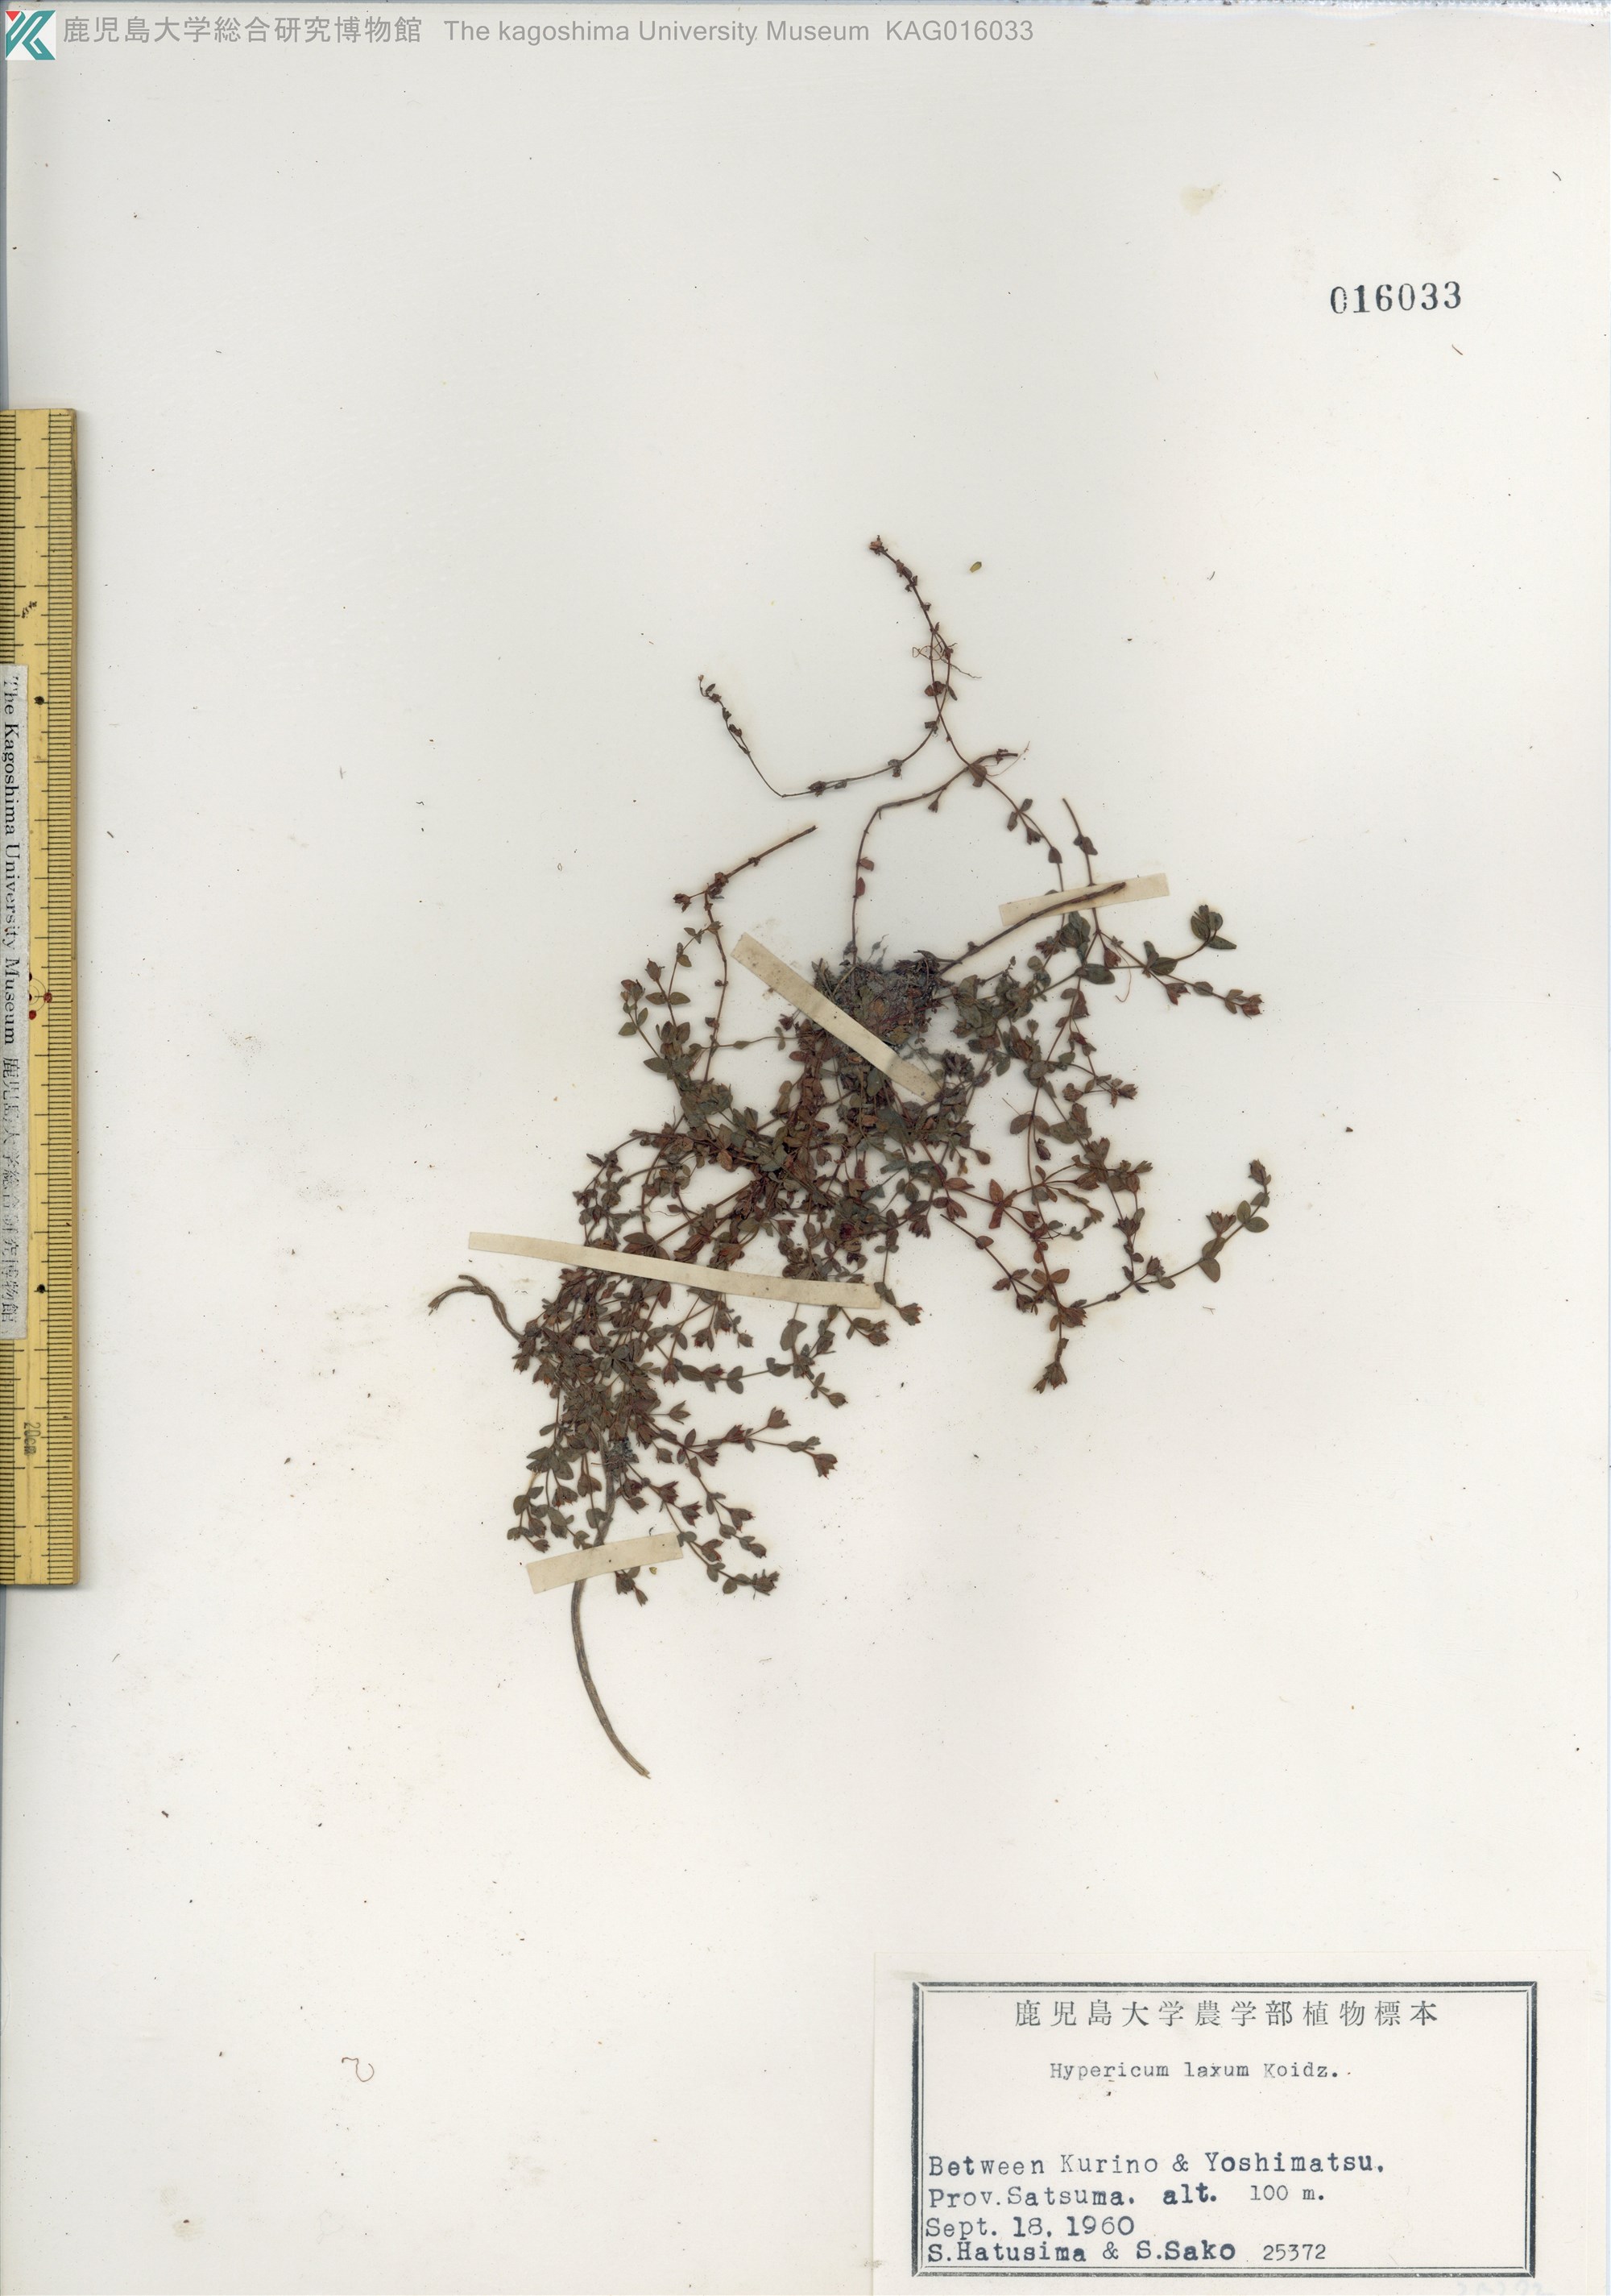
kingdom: Plantae
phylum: Tracheophyta
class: Magnoliopsida
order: Malpighiales
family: Hypericaceae
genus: Hypericum
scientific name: Hypericum japonicum
